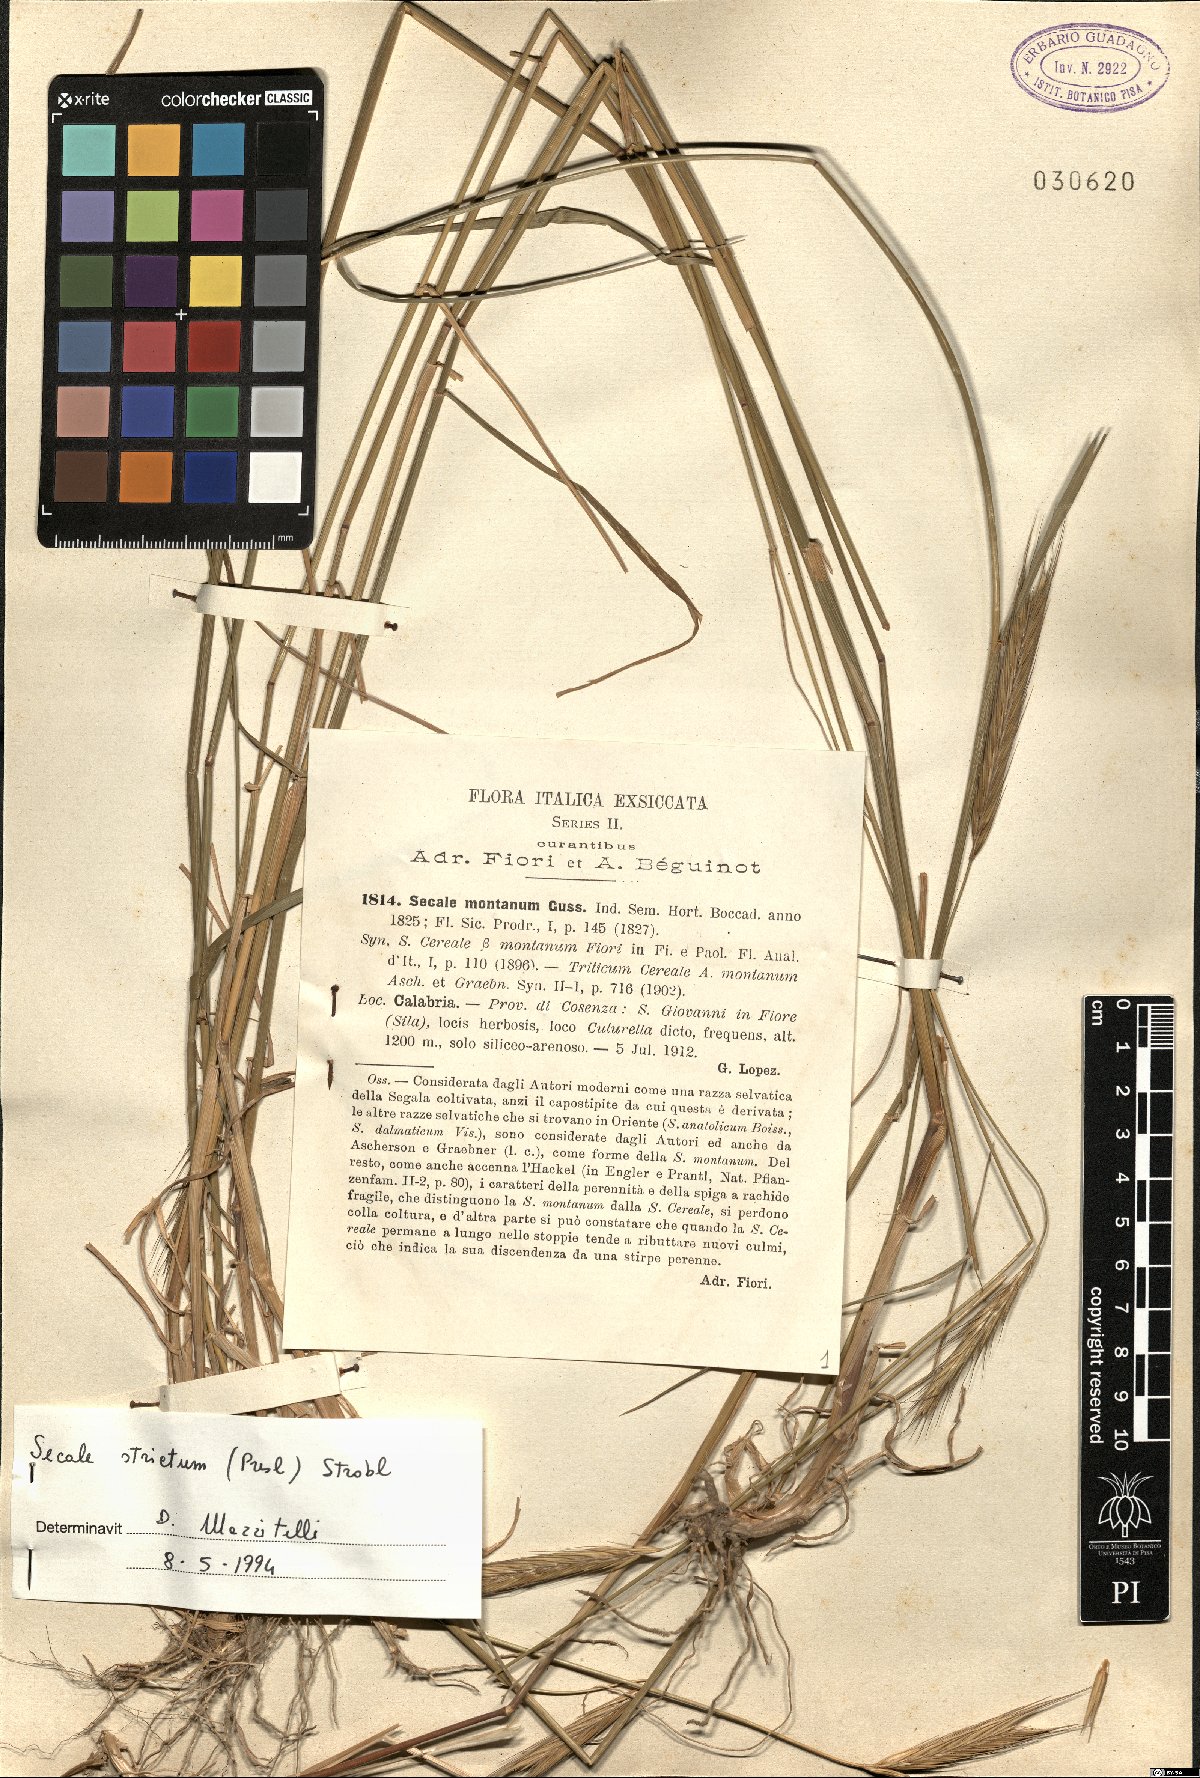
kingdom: Plantae
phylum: Tracheophyta
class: Liliopsida
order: Poales
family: Poaceae
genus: Secale
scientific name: Secale strictum
